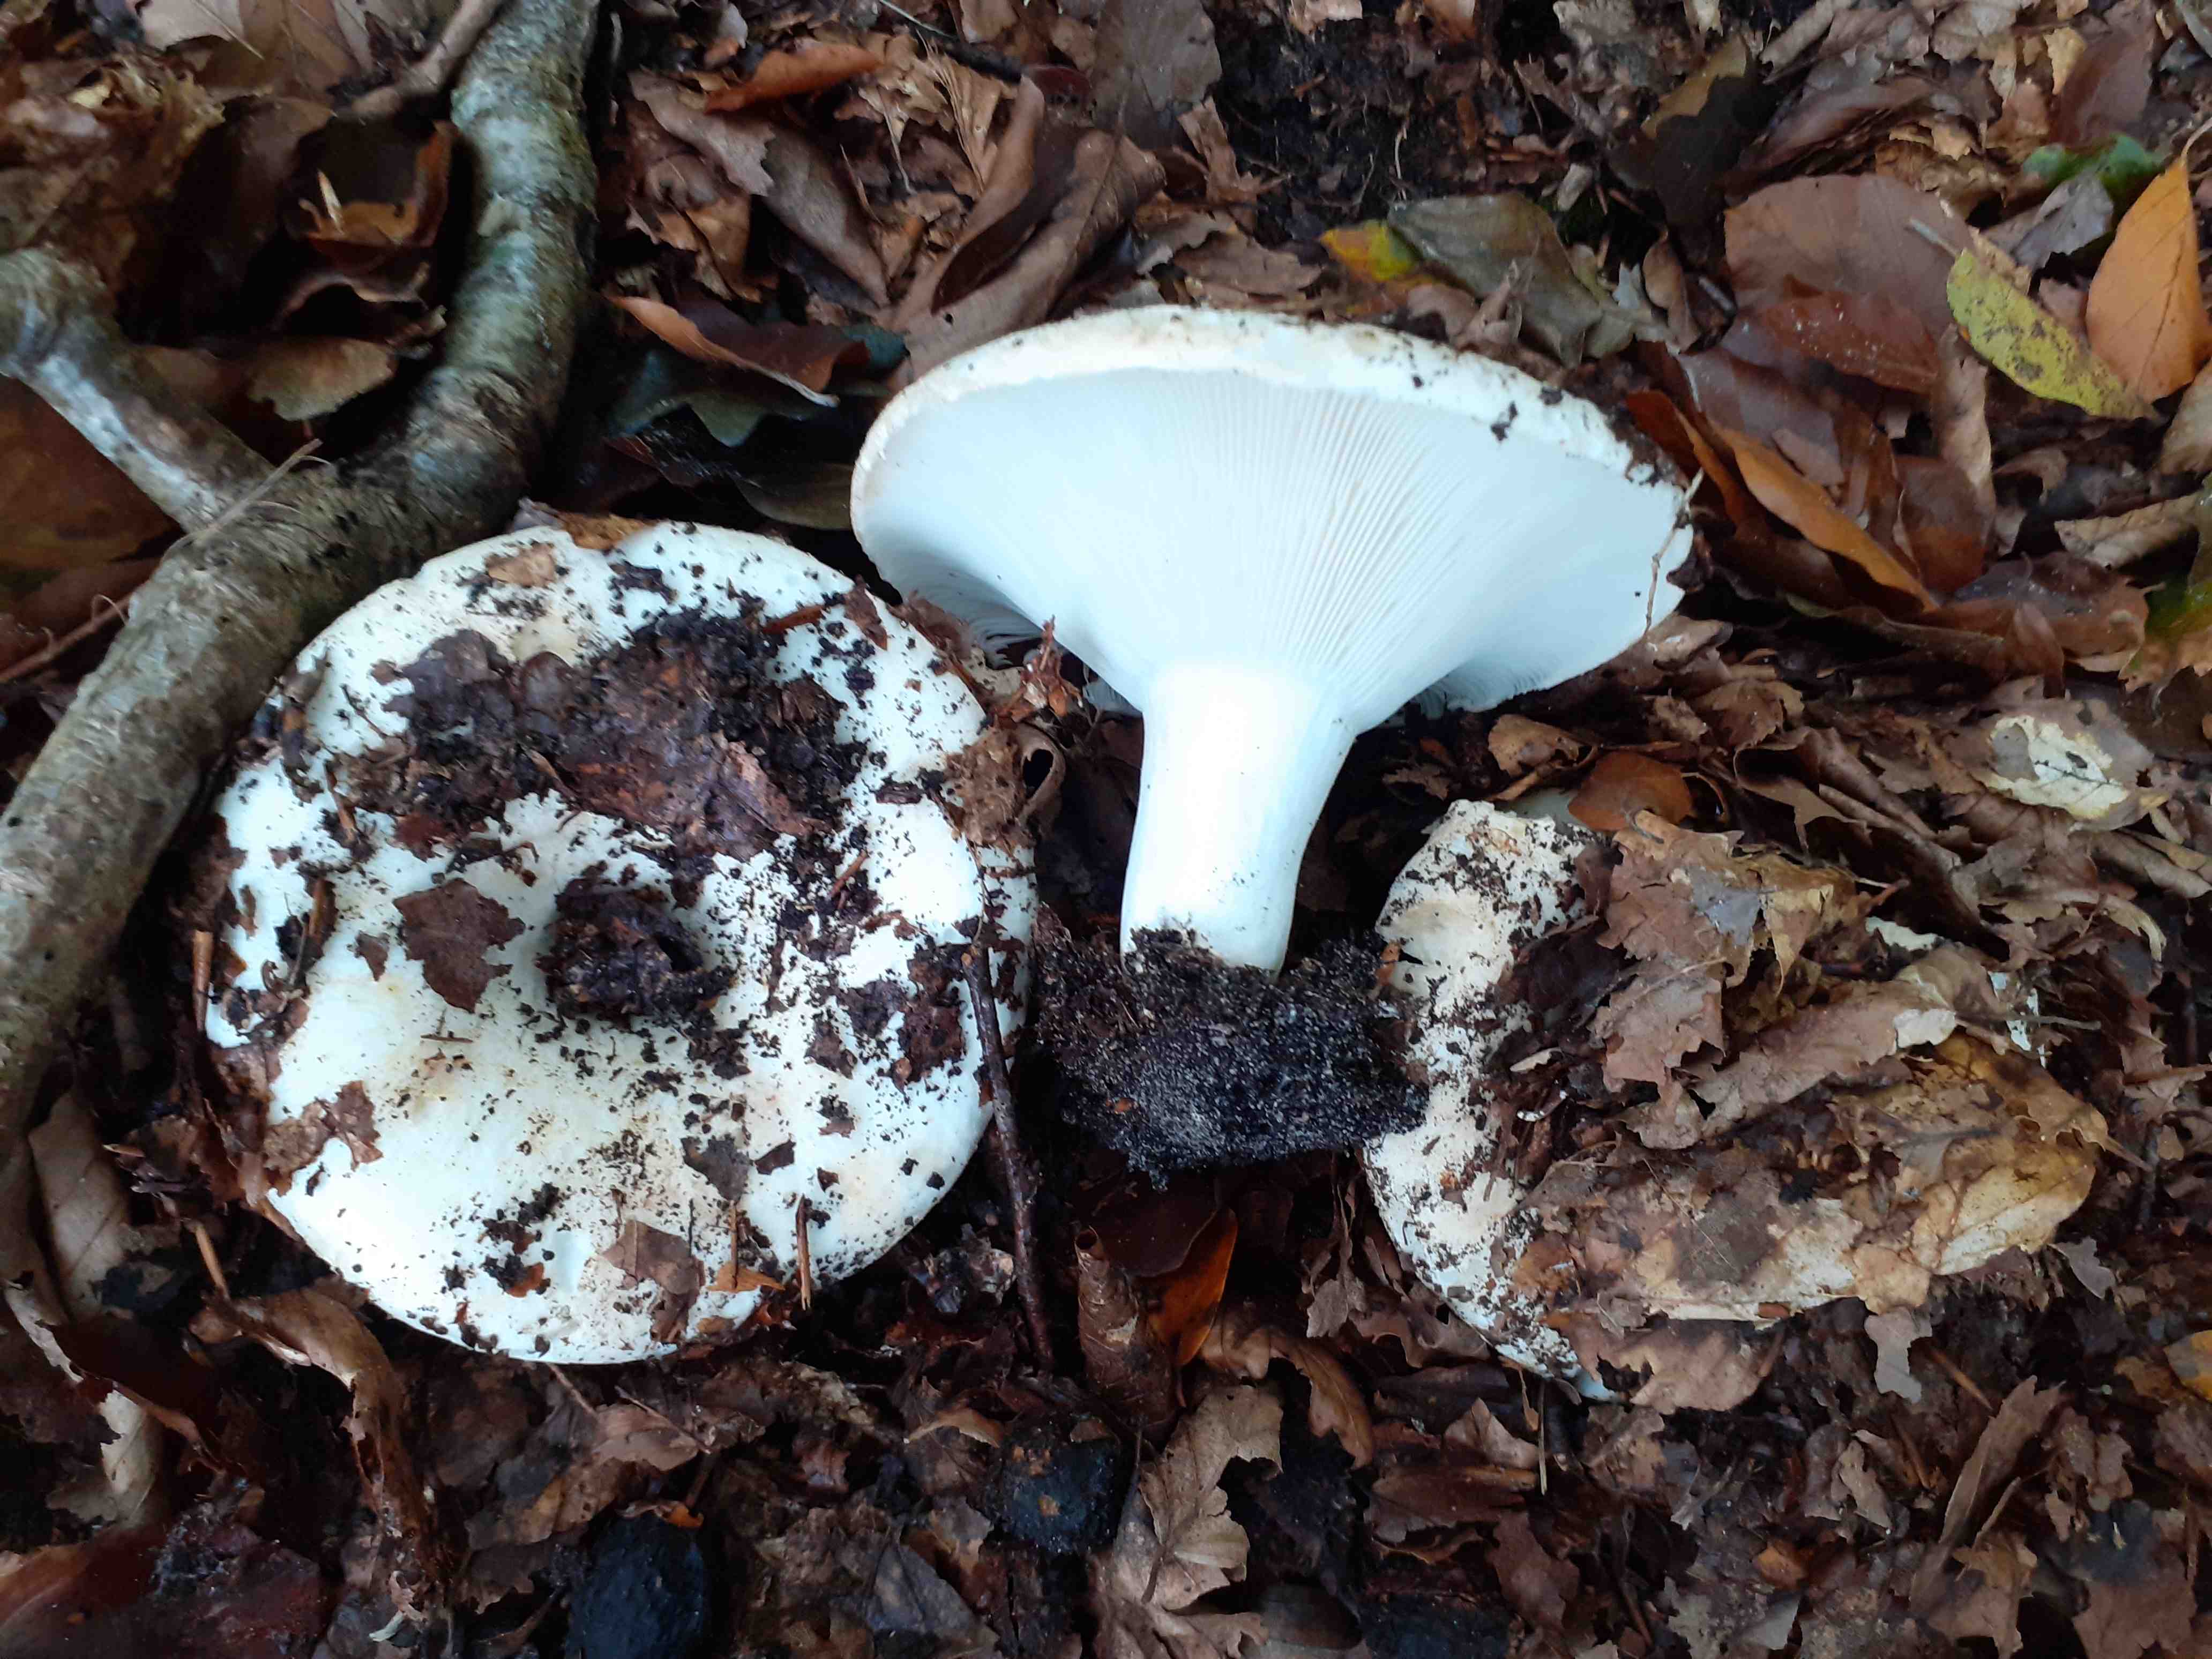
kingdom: Fungi
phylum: Basidiomycota
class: Agaricomycetes
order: Russulales
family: Russulaceae
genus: Russula
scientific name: Russula chloroides
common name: grønhalset tragt-skørhat
